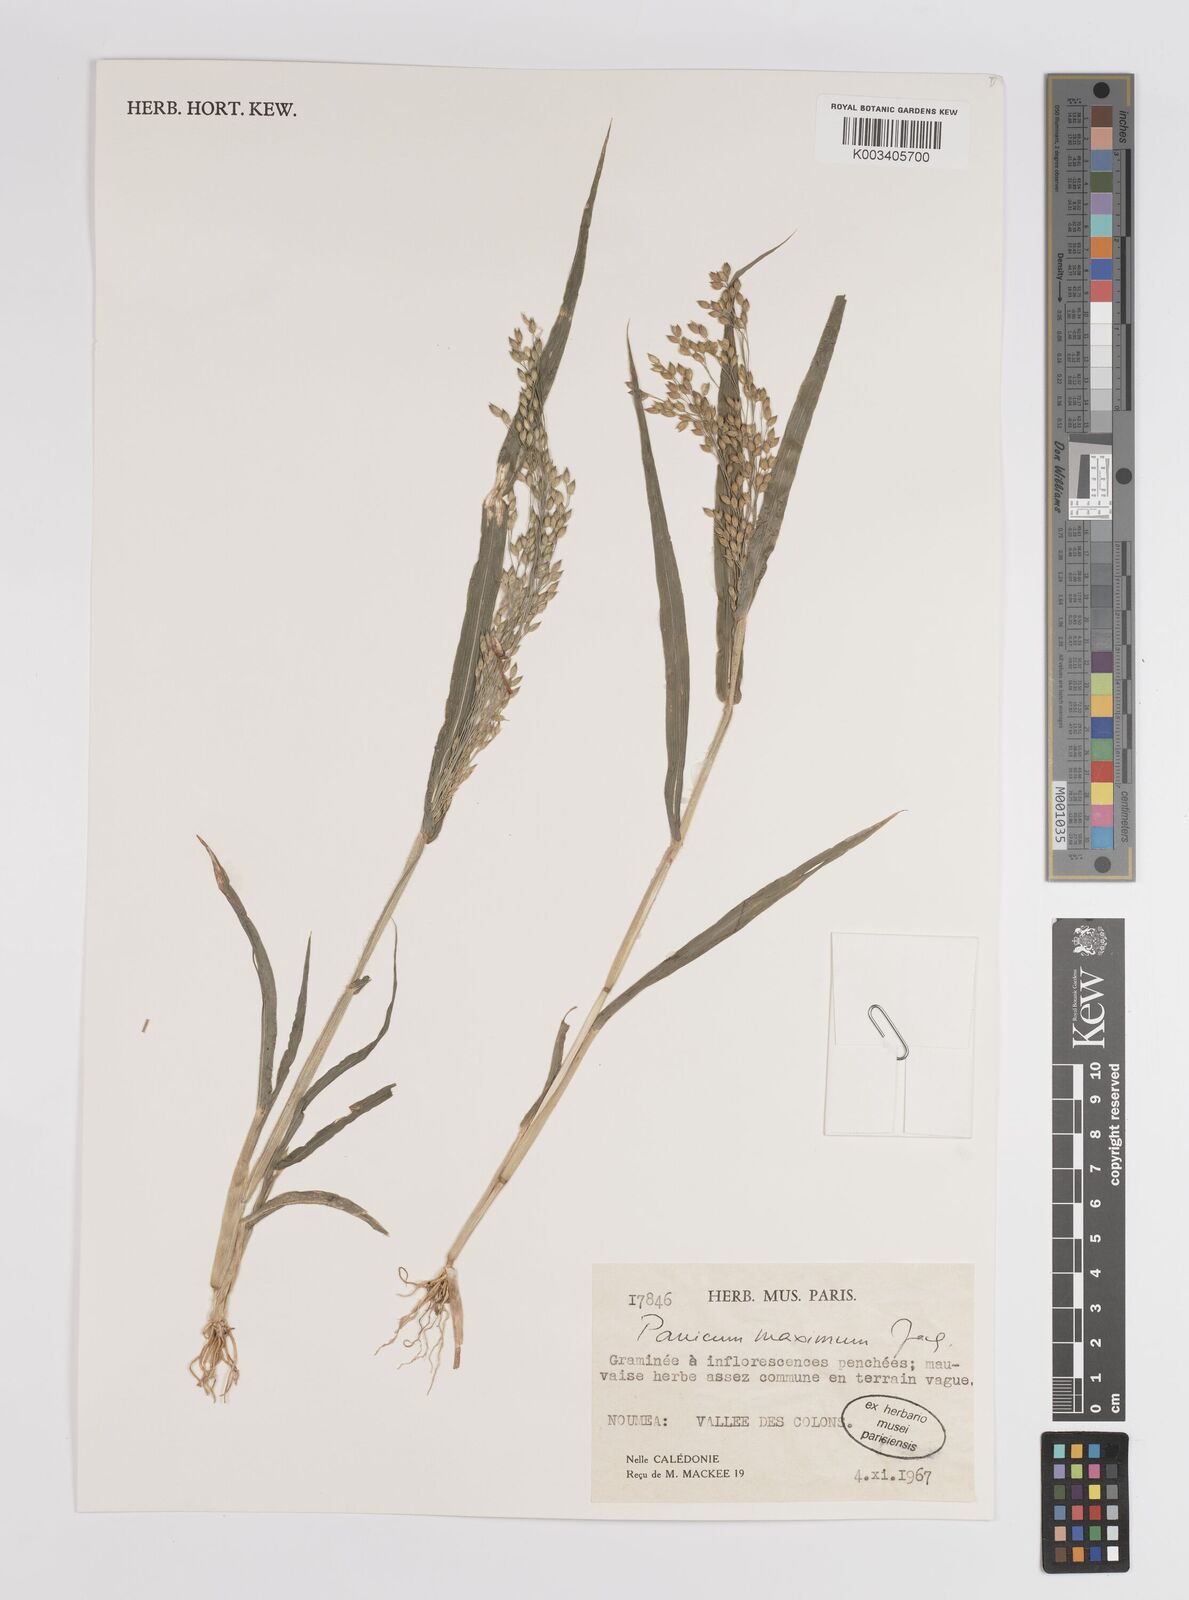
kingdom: Plantae
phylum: Tracheophyta
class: Liliopsida
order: Poales
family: Poaceae
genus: Megathyrsus
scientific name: Megathyrsus maximus
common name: Guineagrass
